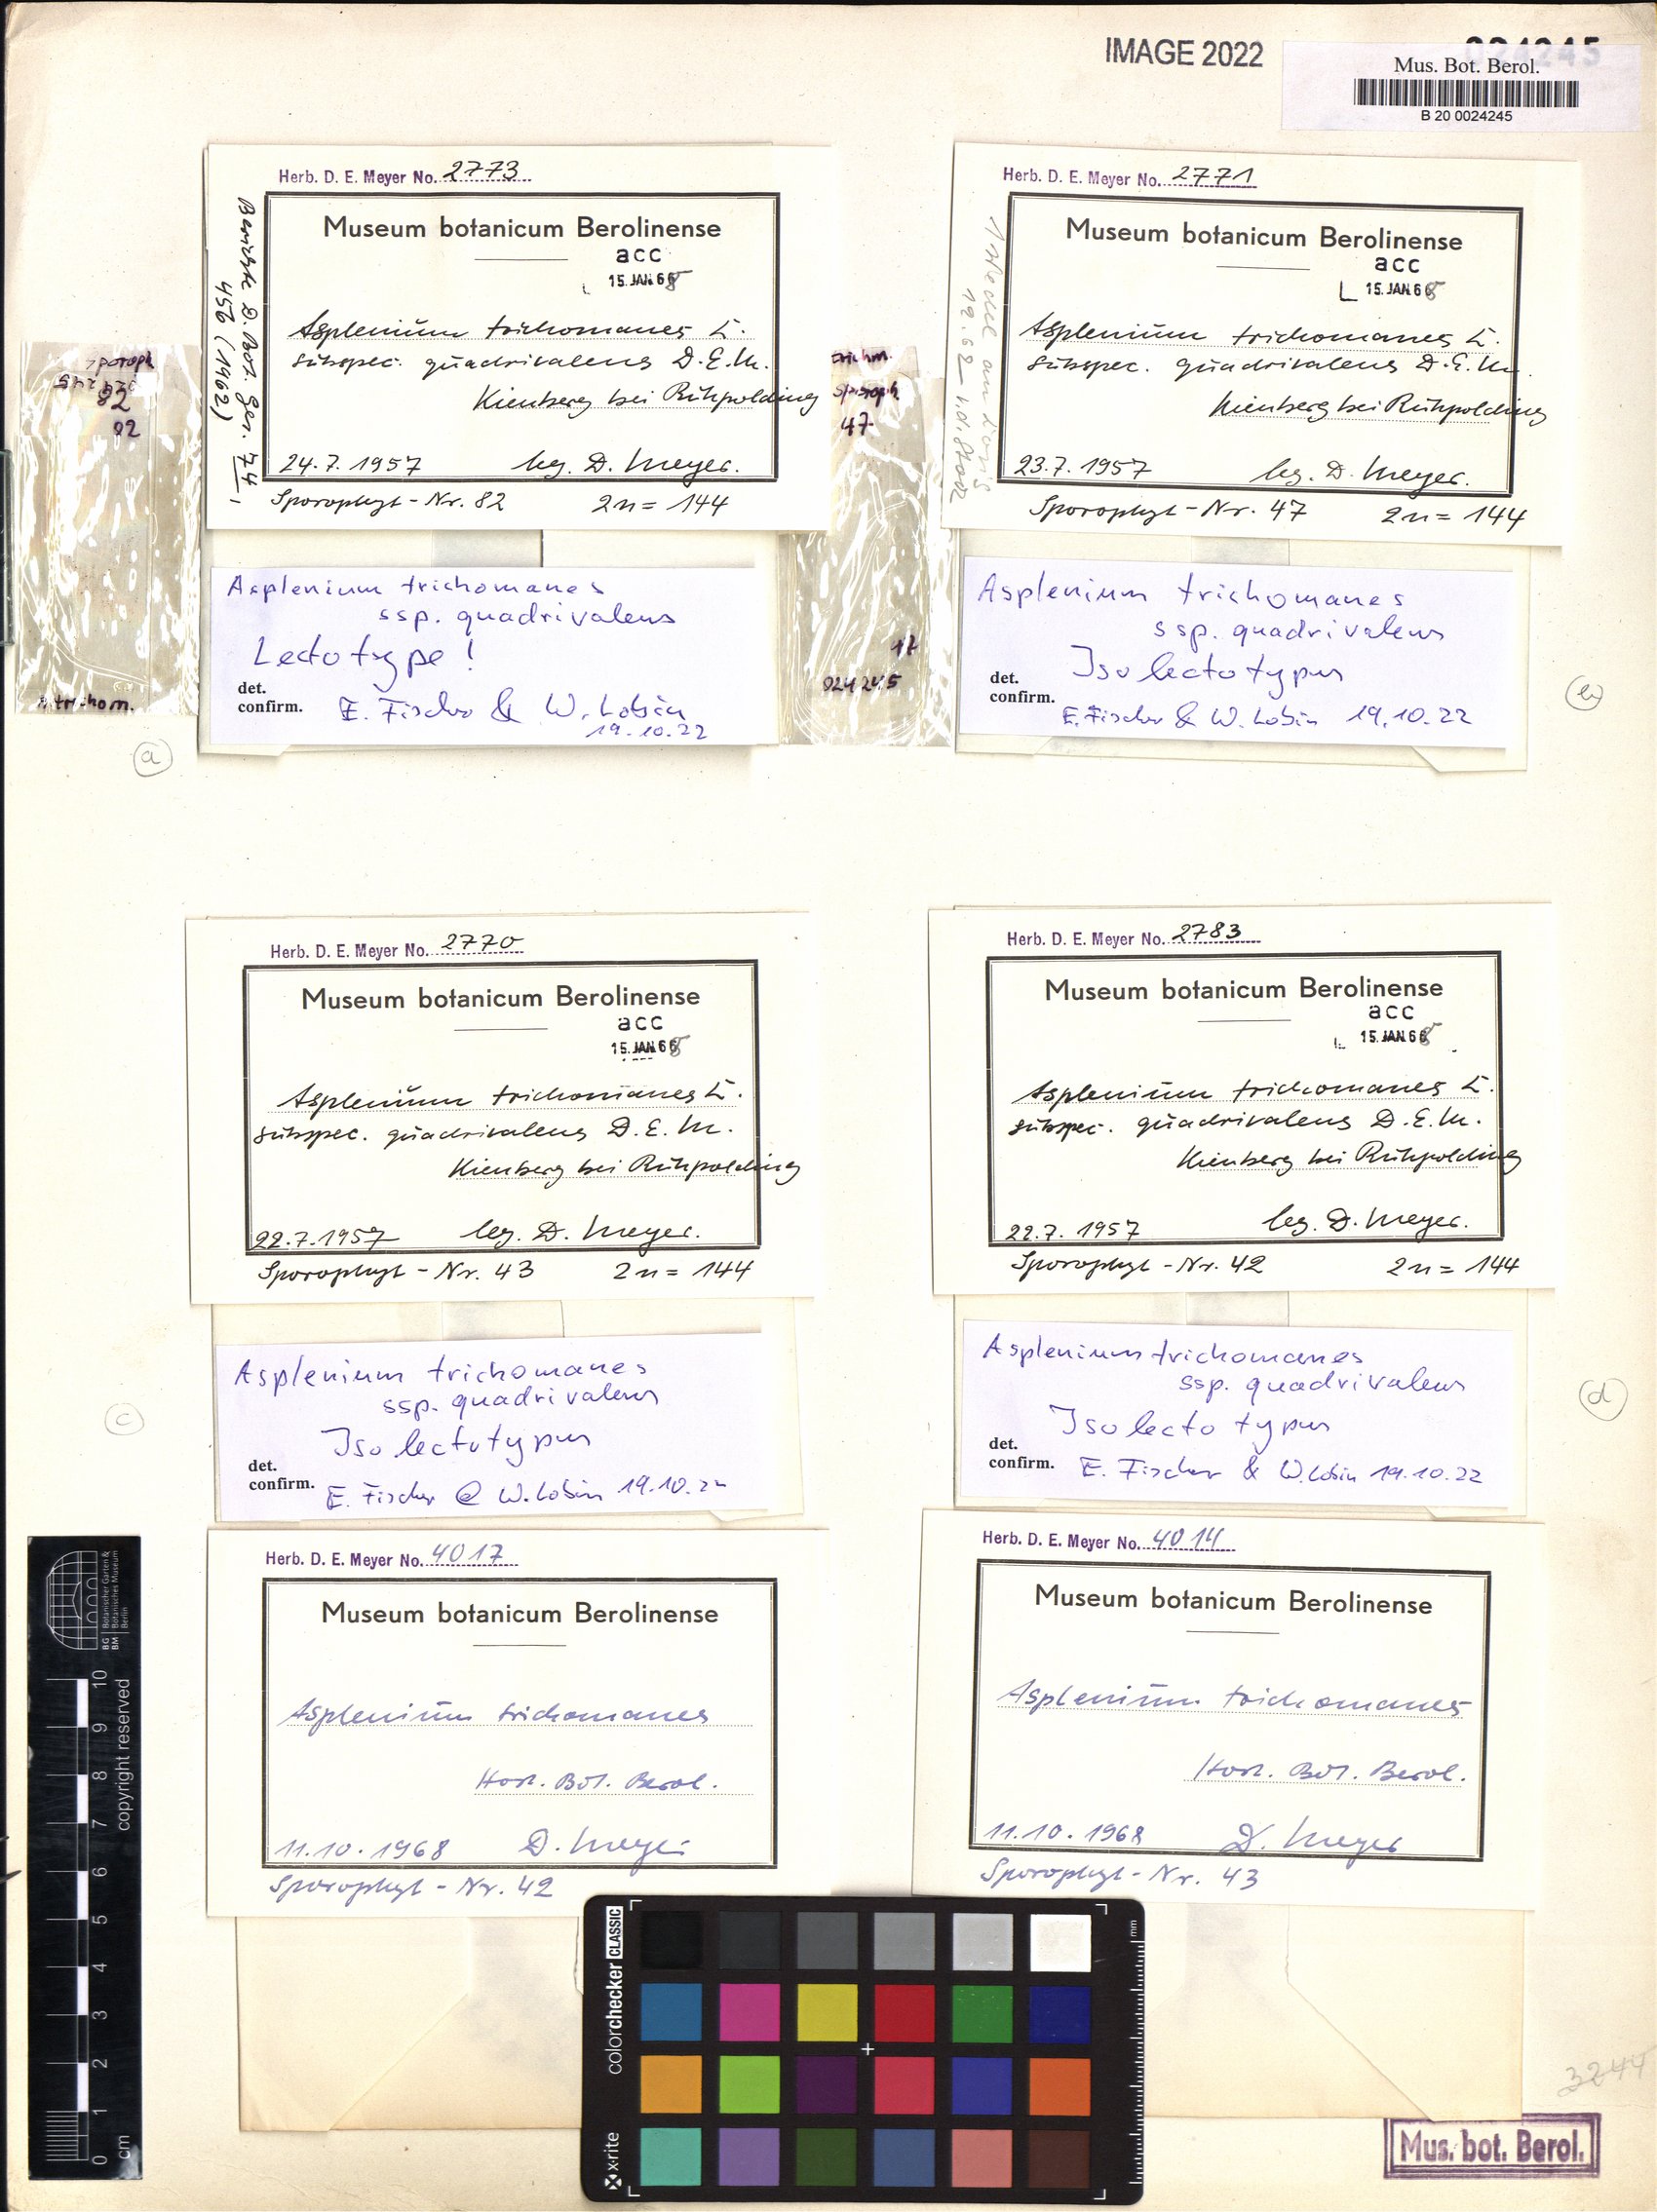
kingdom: Plantae
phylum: Tracheophyta
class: Polypodiopsida
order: Polypodiales
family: Aspleniaceae
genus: Asplenium
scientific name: Asplenium quadrivalens
